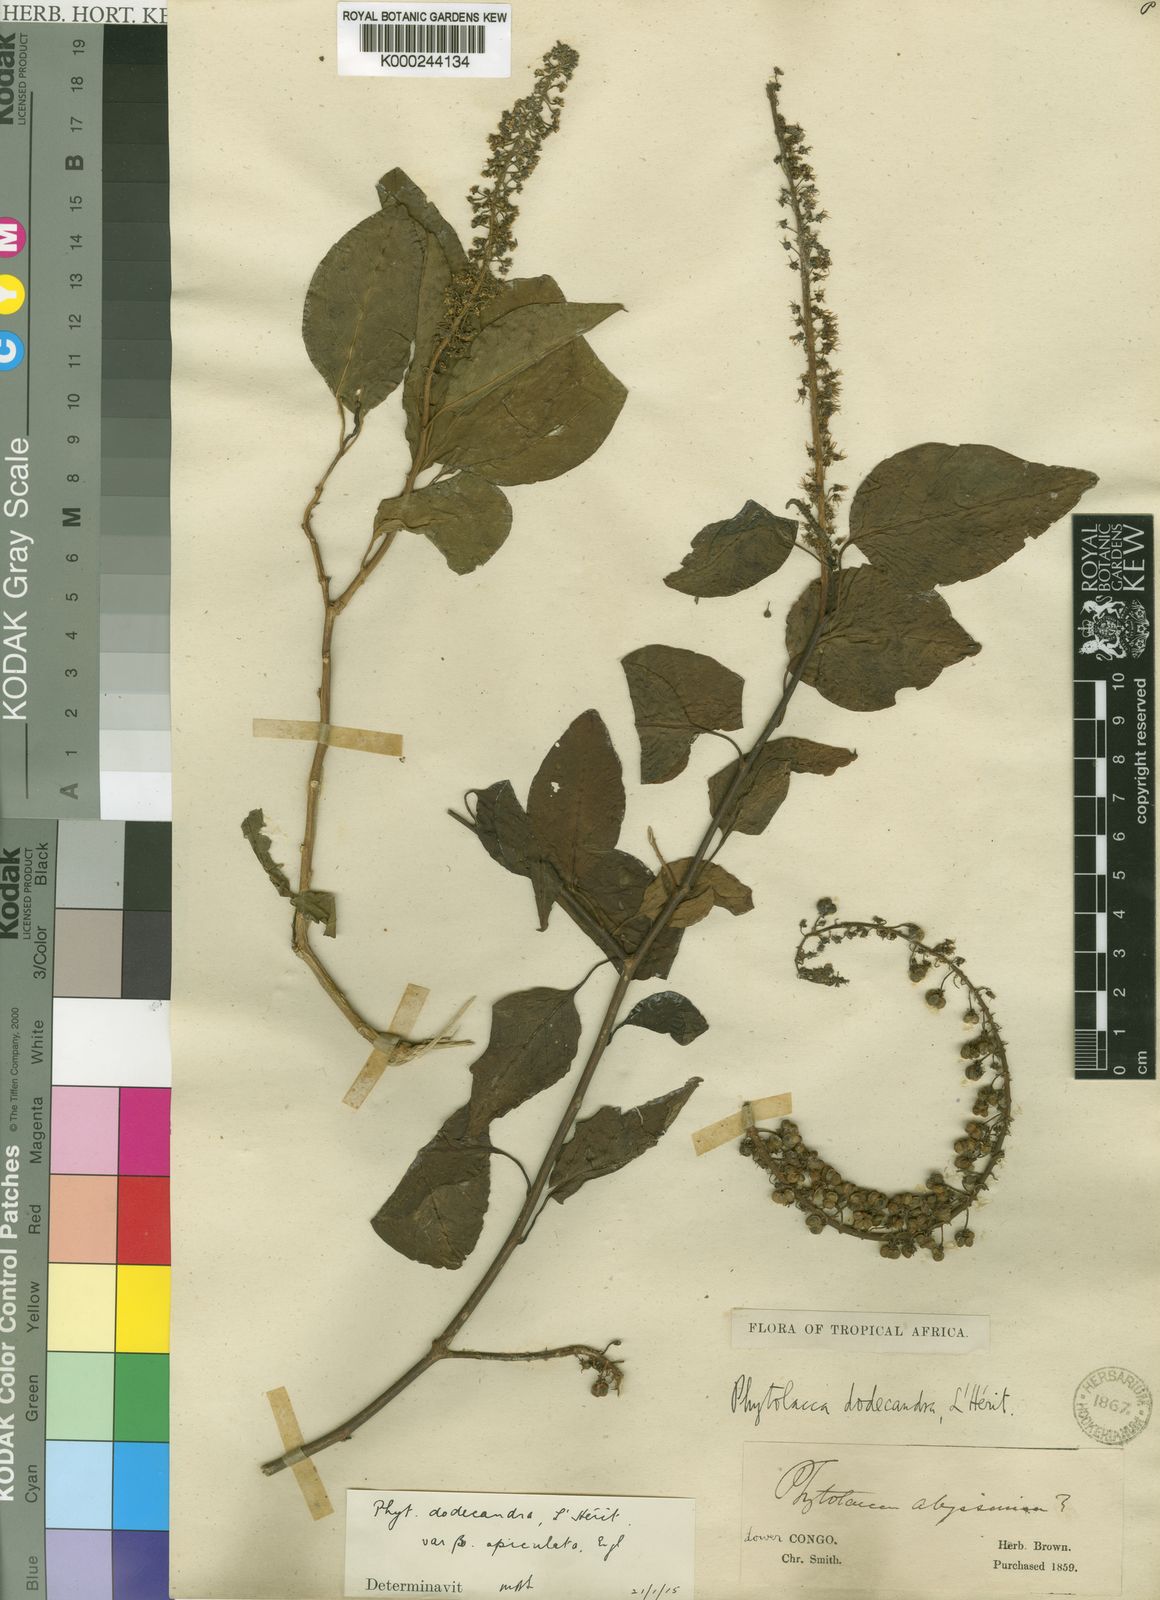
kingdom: Plantae
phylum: Tracheophyta
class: Magnoliopsida
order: Caryophyllales
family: Phytolaccaceae
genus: Phytolacca
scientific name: Phytolacca
